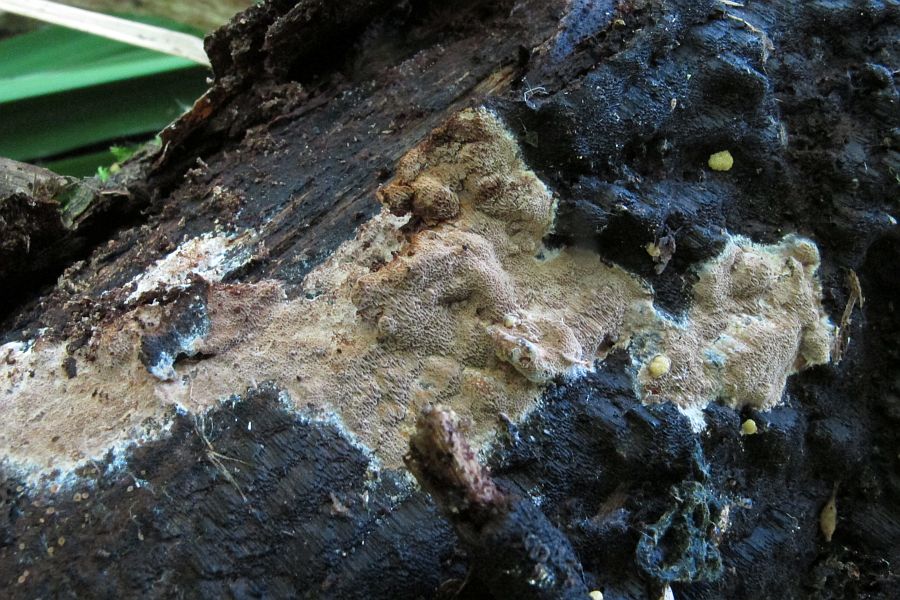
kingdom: Fungi
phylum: Basidiomycota
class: Agaricomycetes
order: Hymenochaetales
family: Hymenochaetaceae
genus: Fuscoporia
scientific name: Fuscoporia ferrea
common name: skorpe-ildporesvamp
